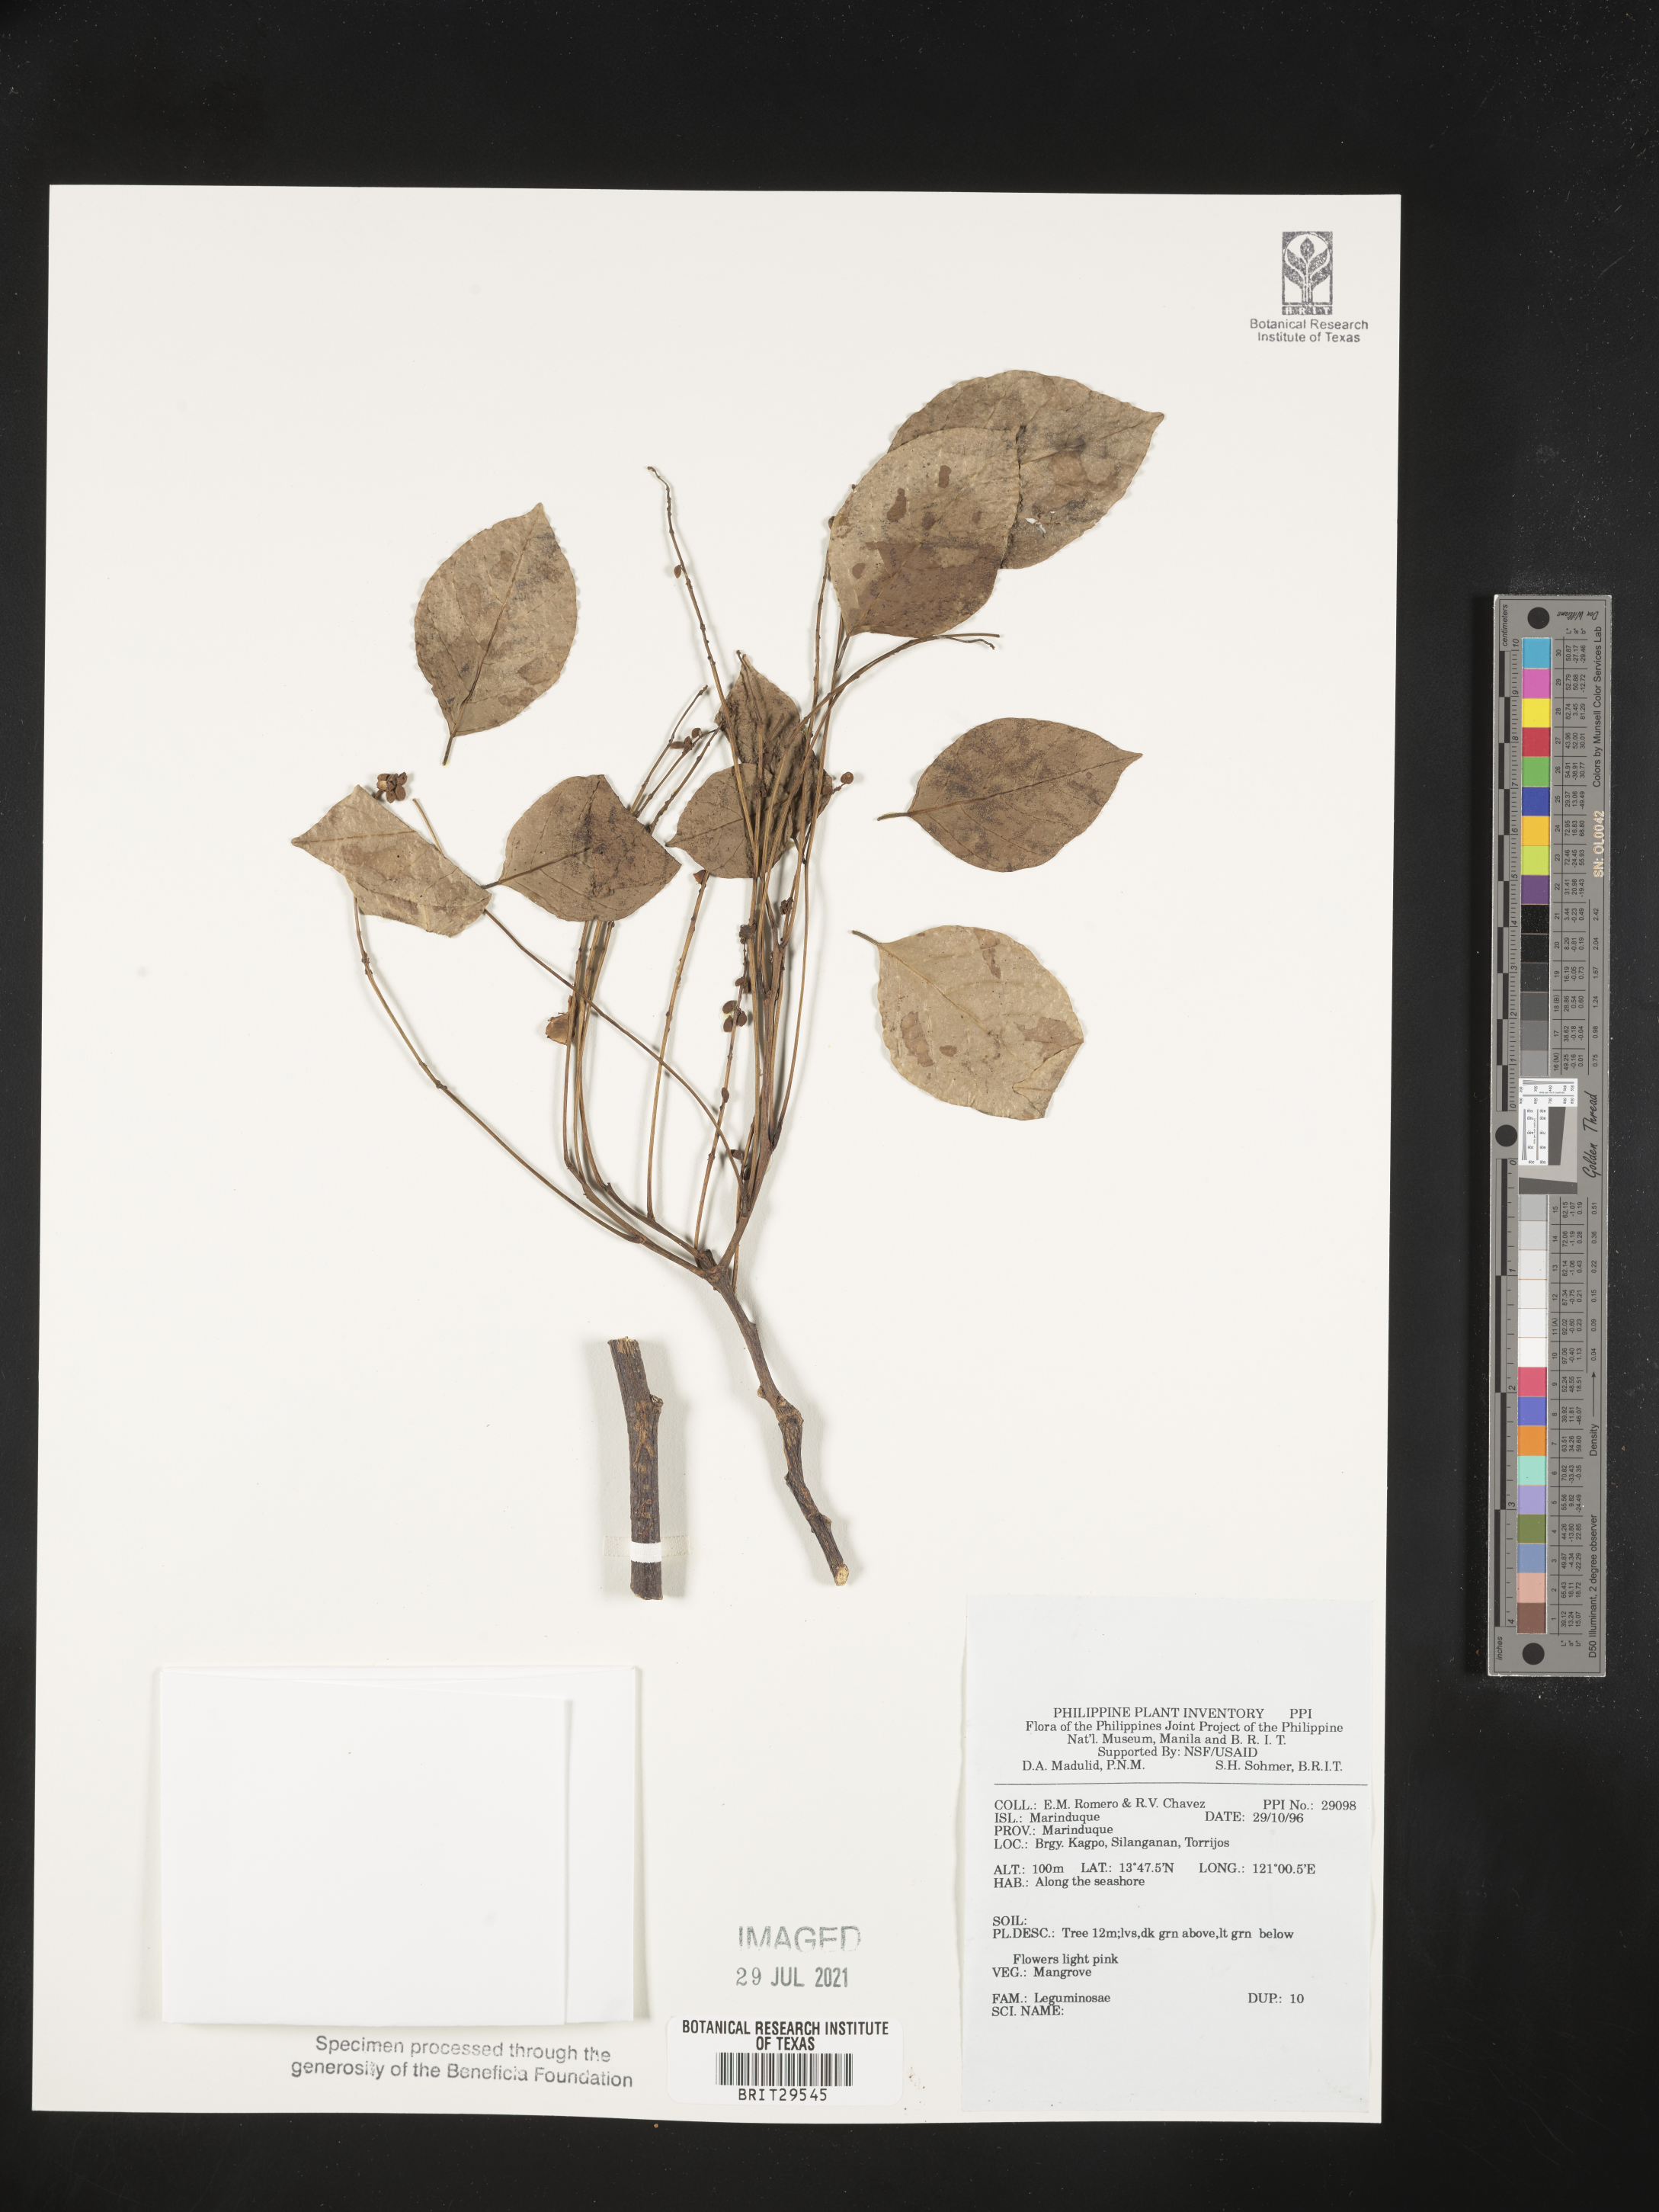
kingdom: Plantae
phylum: Tracheophyta
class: Magnoliopsida
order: Fabales
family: Fabaceae
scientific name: Fabaceae
